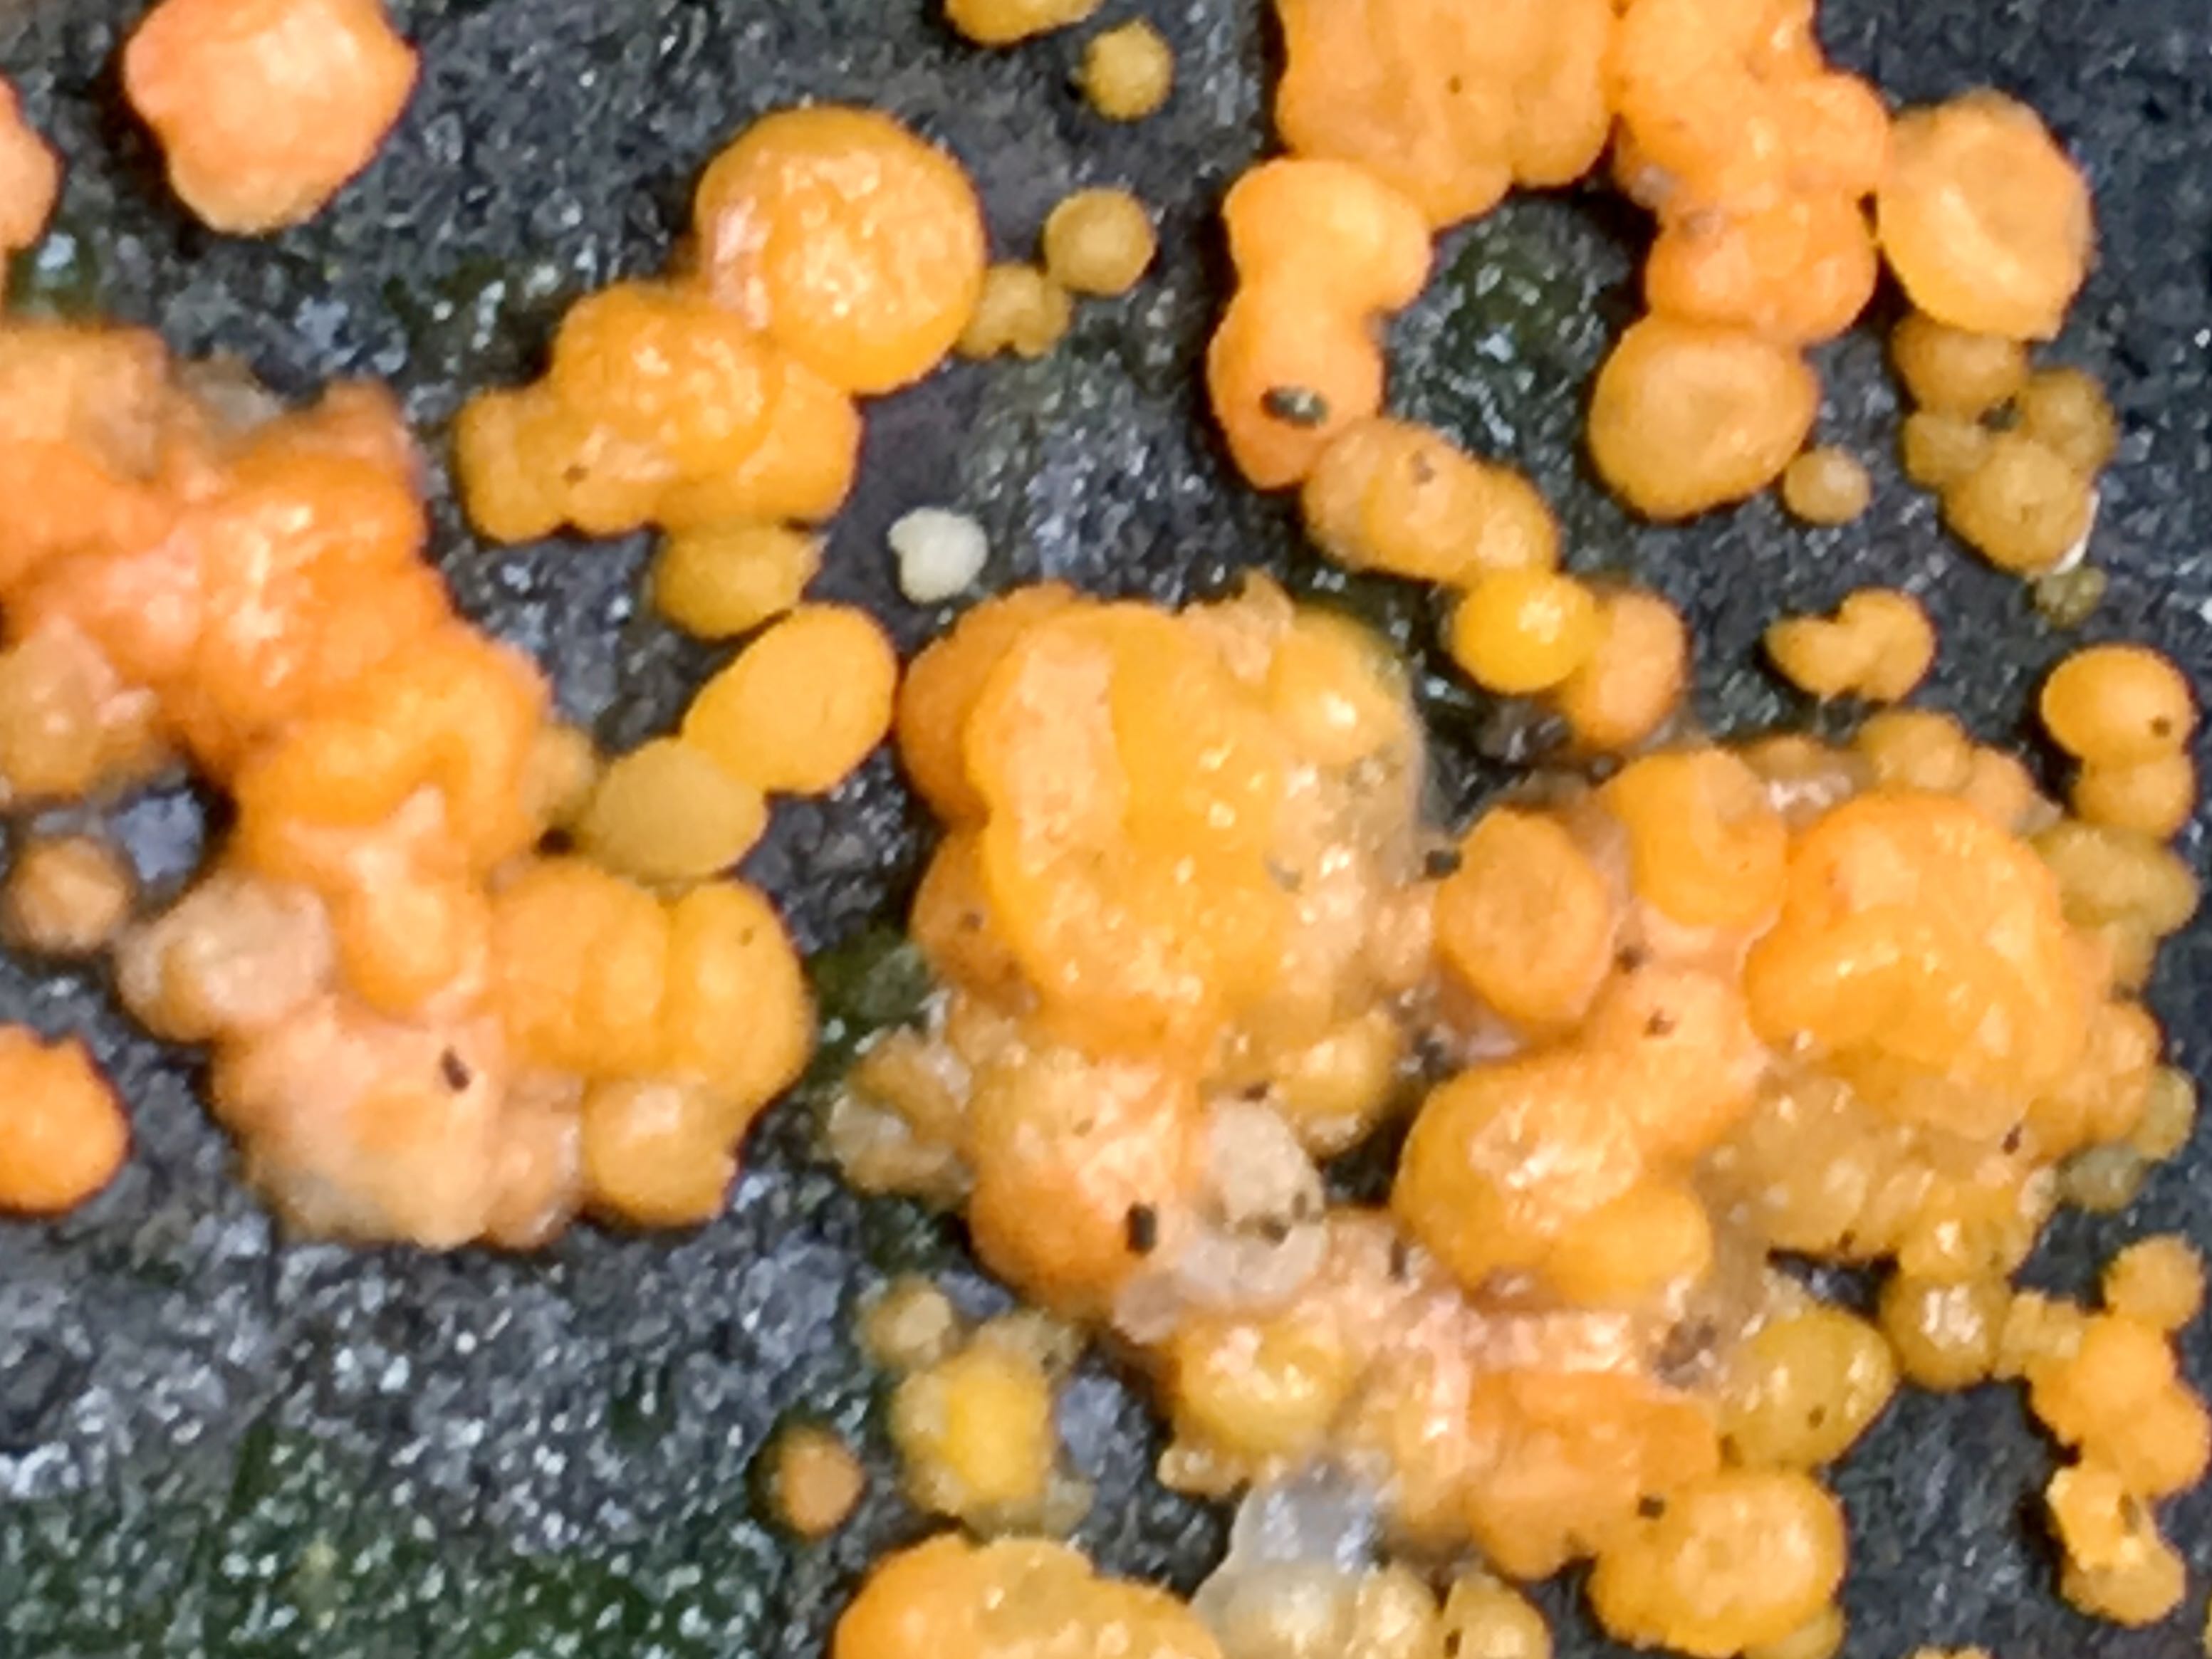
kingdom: Fungi
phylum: Basidiomycota
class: Dacrymycetes
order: Dacrymycetales
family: Dacrymycetaceae
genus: Dacrymyces
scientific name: Dacrymyces stillatus
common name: almindelig tåresvamp
